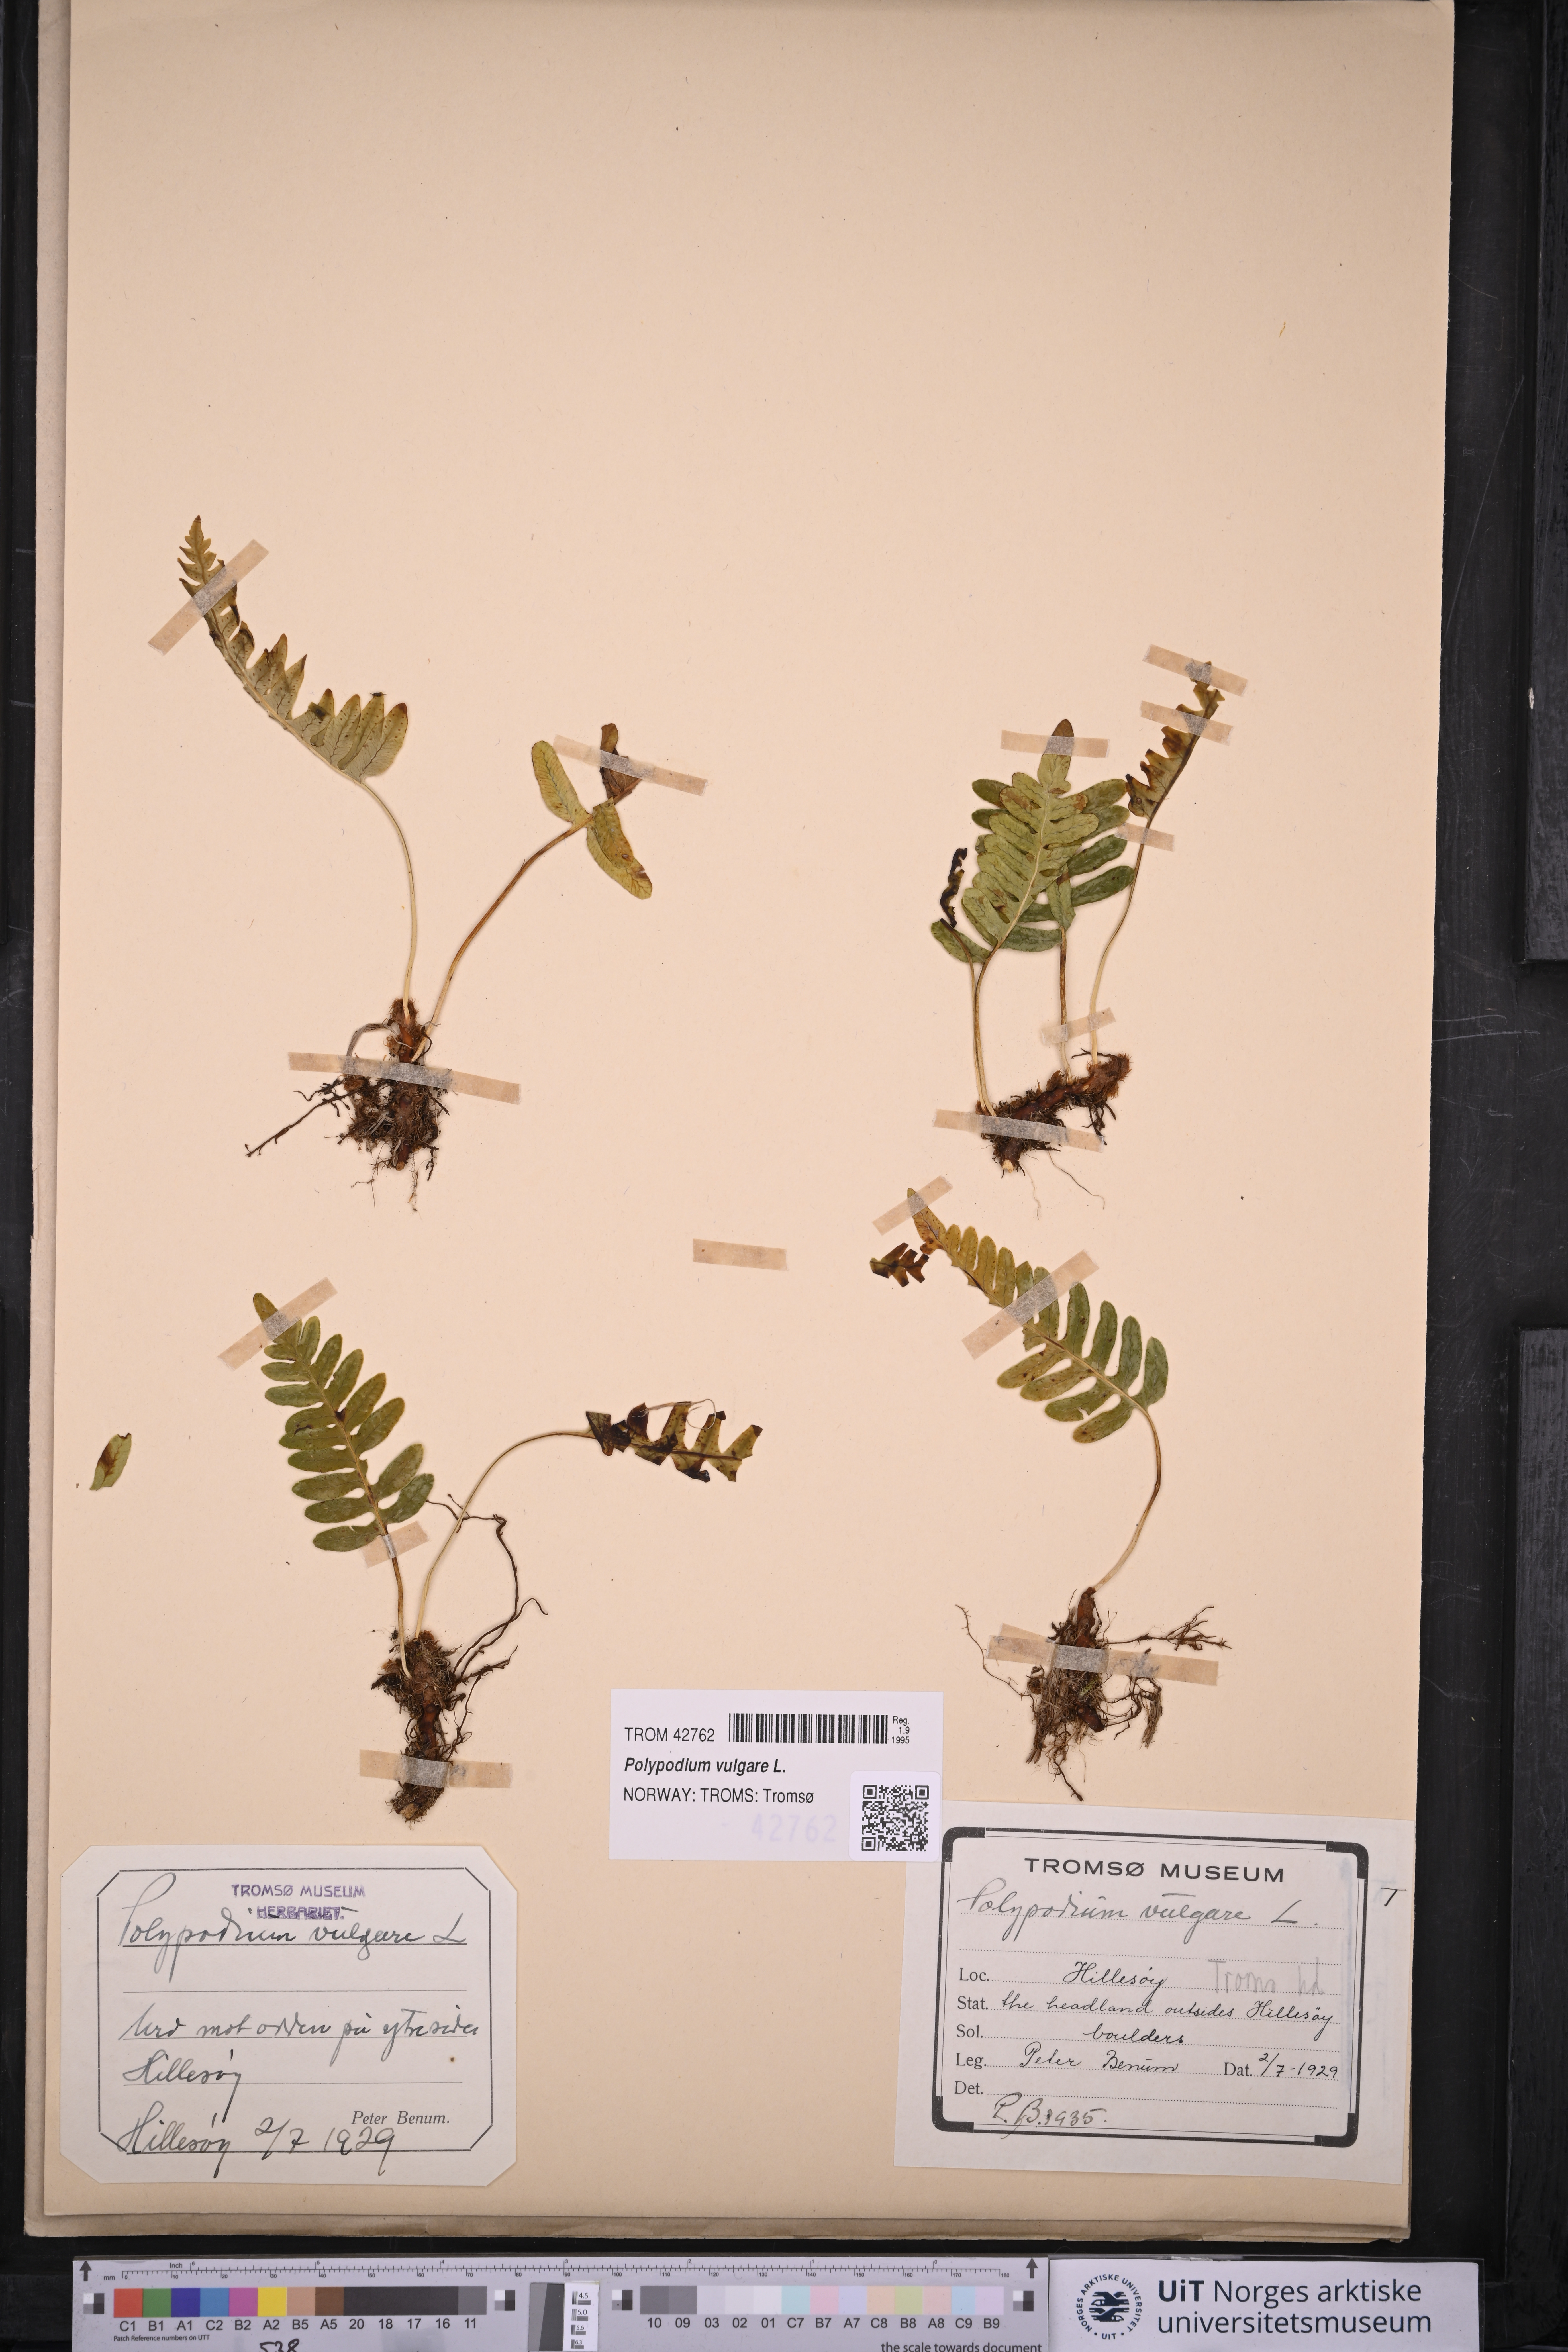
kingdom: Plantae
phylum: Tracheophyta
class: Polypodiopsida
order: Polypodiales
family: Polypodiaceae
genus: Polypodium
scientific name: Polypodium vulgare
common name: Common polypody
